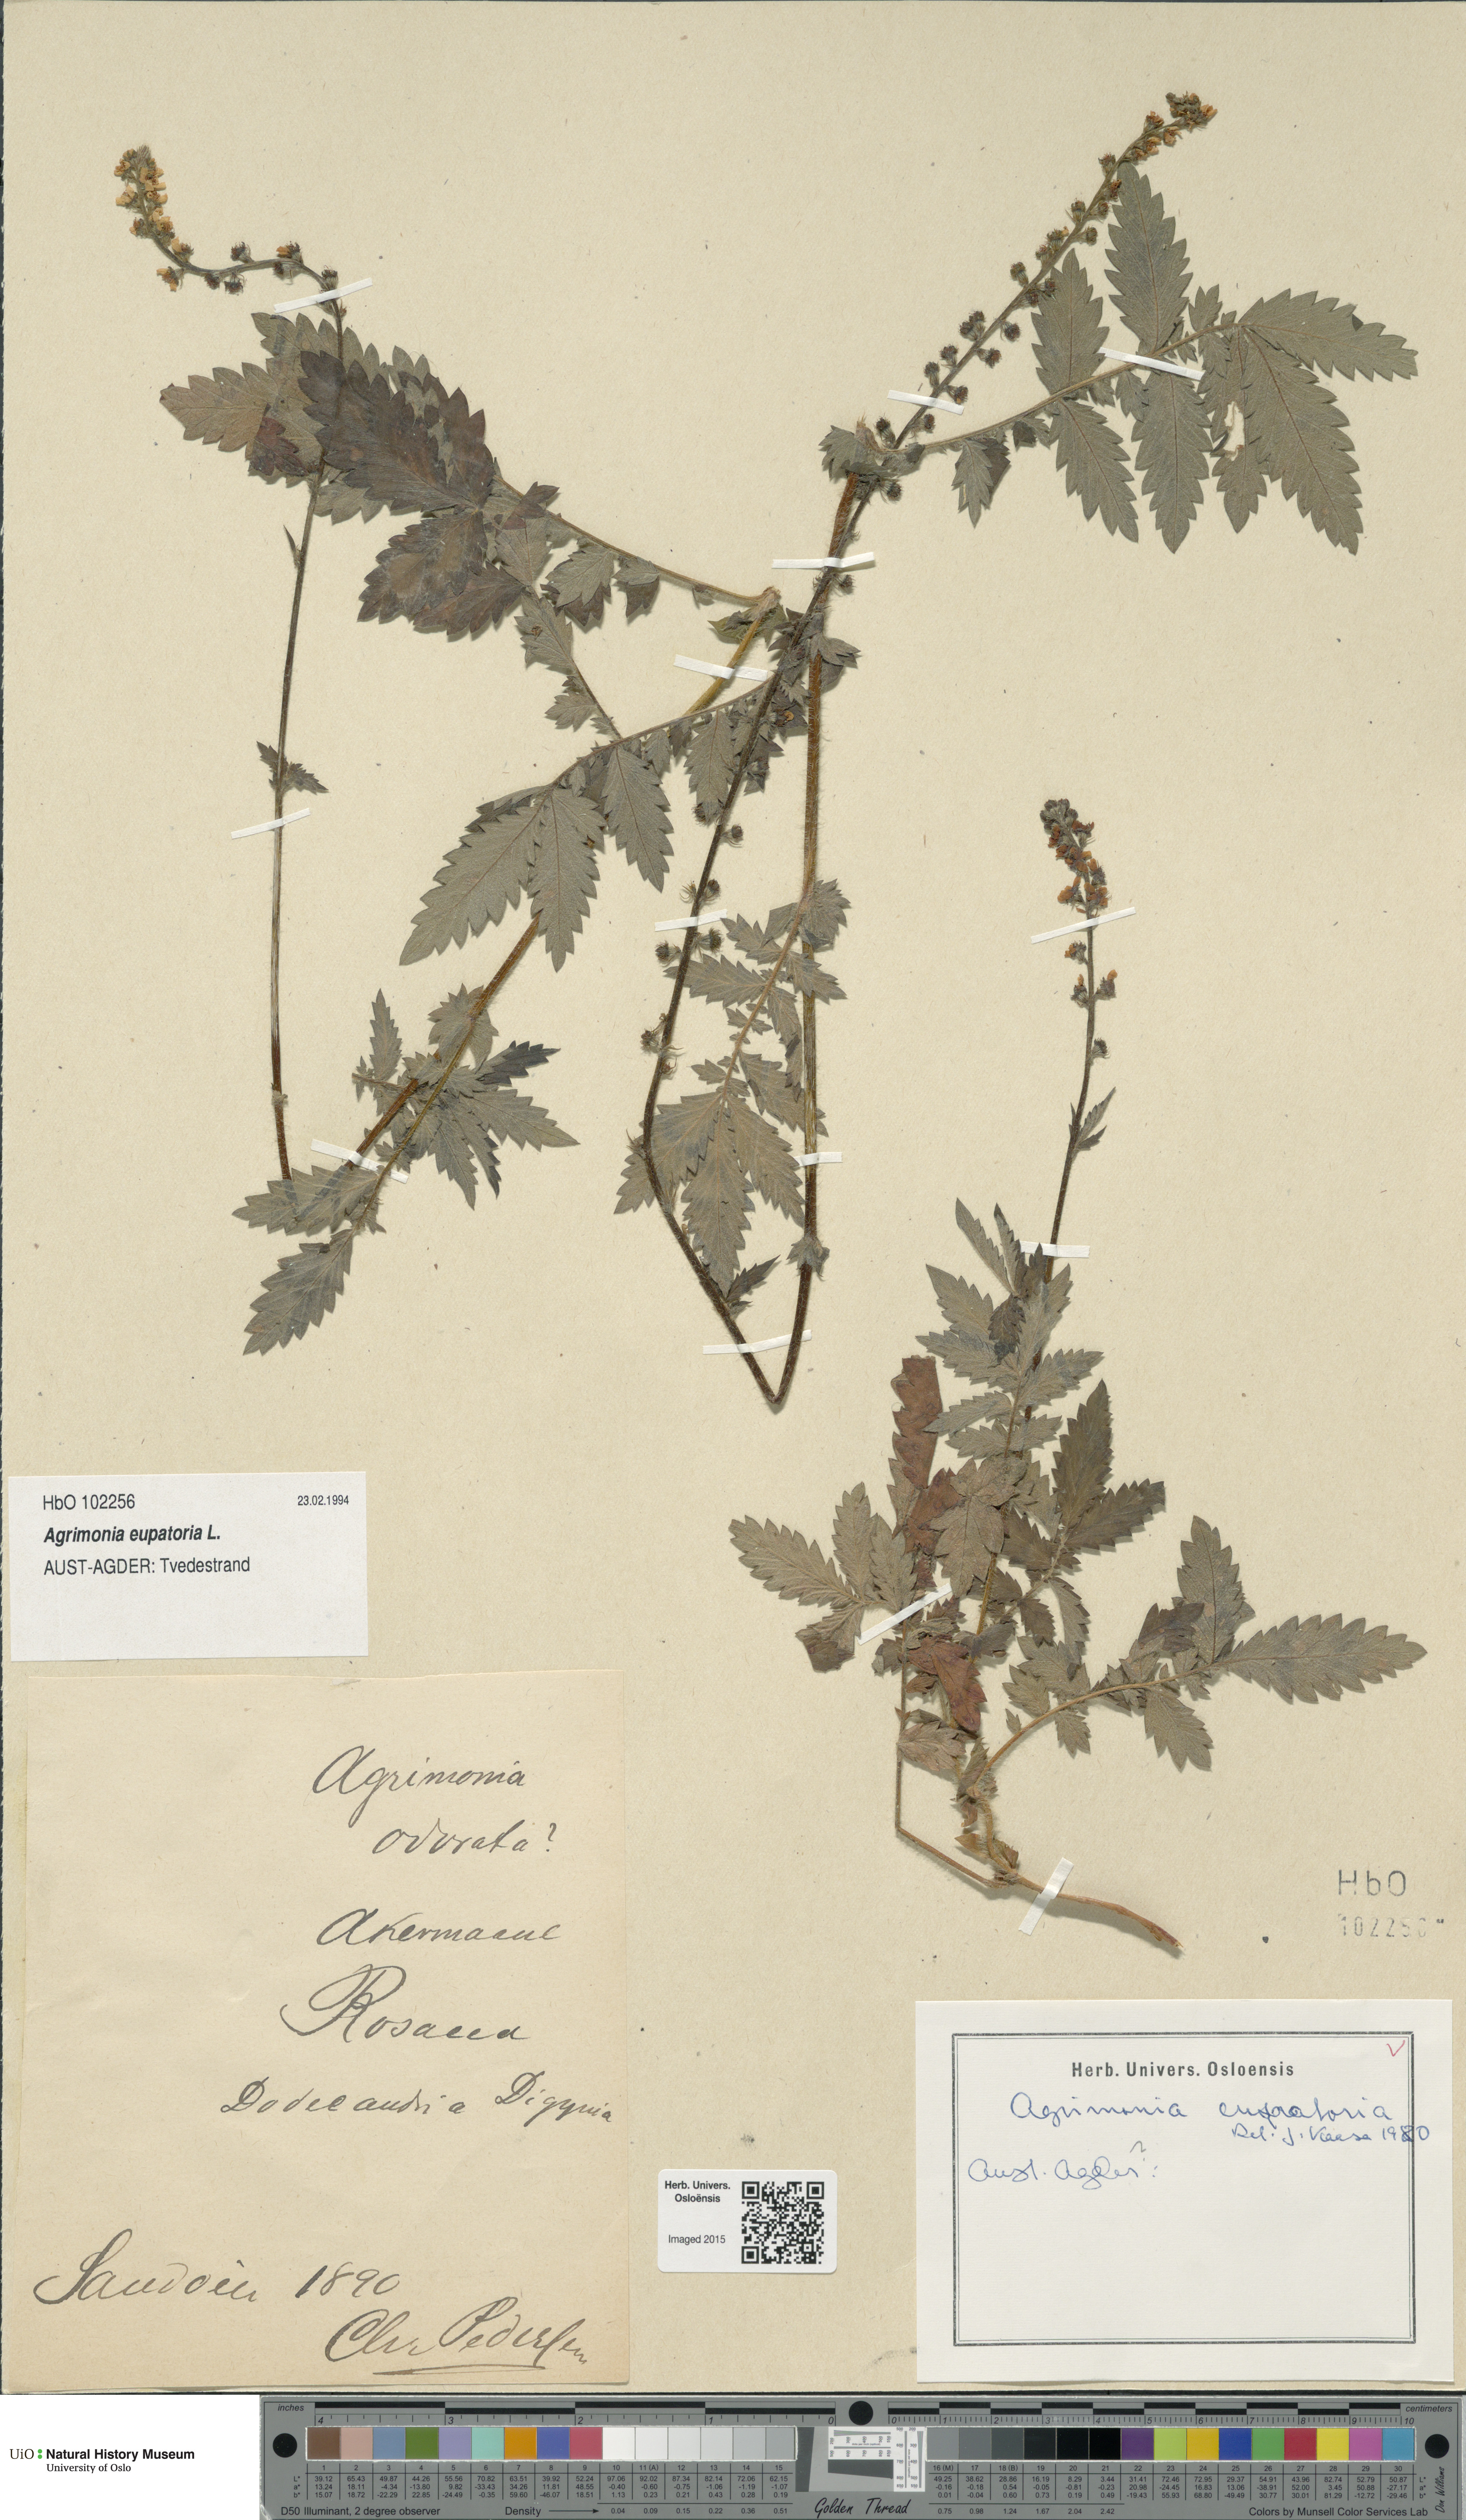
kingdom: Plantae
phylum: Tracheophyta
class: Magnoliopsida
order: Rosales
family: Rosaceae
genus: Agrimonia
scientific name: Agrimonia eupatoria
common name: Agrimony
